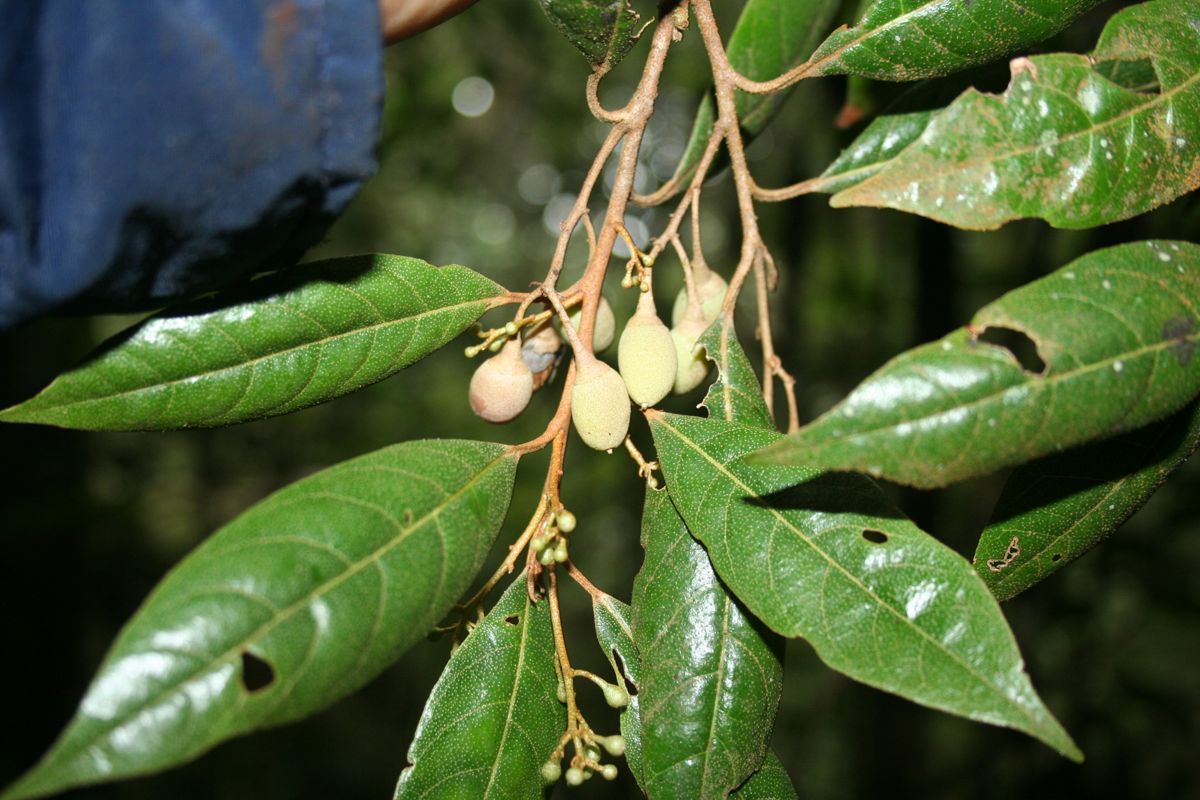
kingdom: Plantae
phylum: Tracheophyta
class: Magnoliopsida
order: Ericales
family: Styracaceae
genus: Styrax
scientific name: Styrax conterminus
